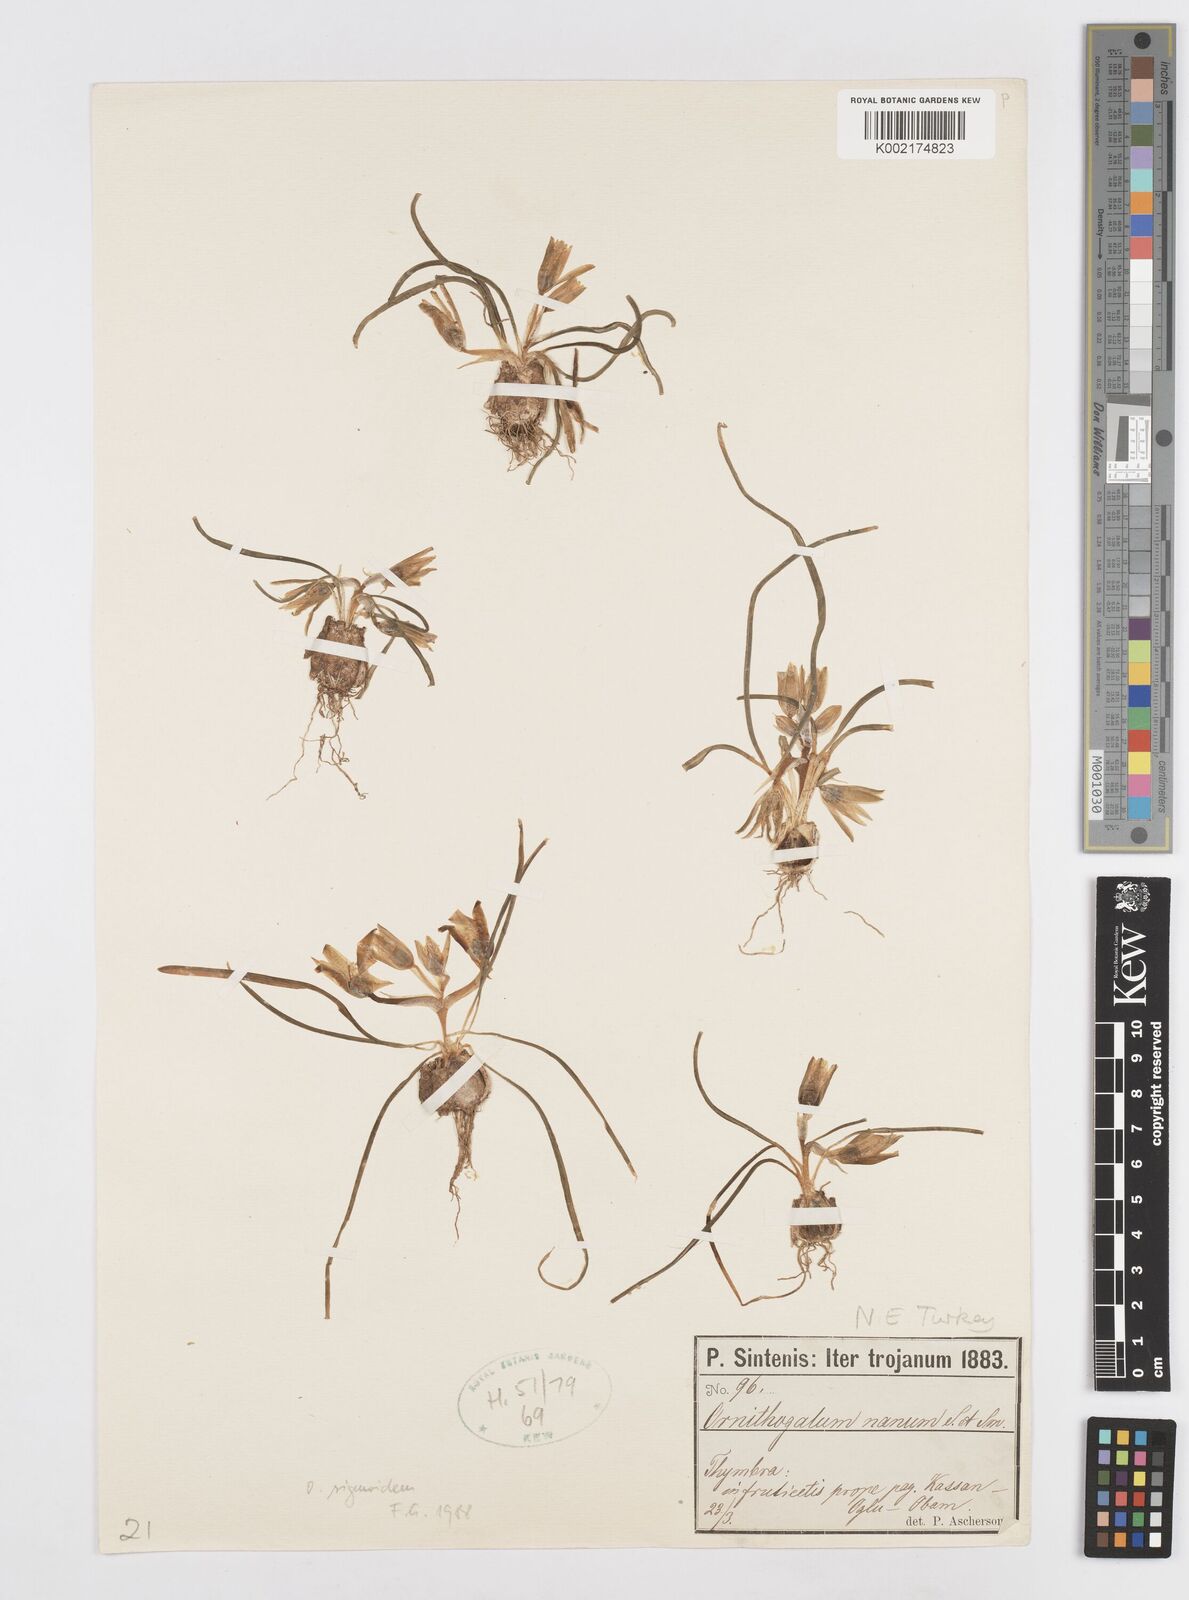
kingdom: Plantae
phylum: Tracheophyta
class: Liliopsida
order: Asparagales
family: Asparagaceae
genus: Ornithogalum
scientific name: Ornithogalum sigmoideum
